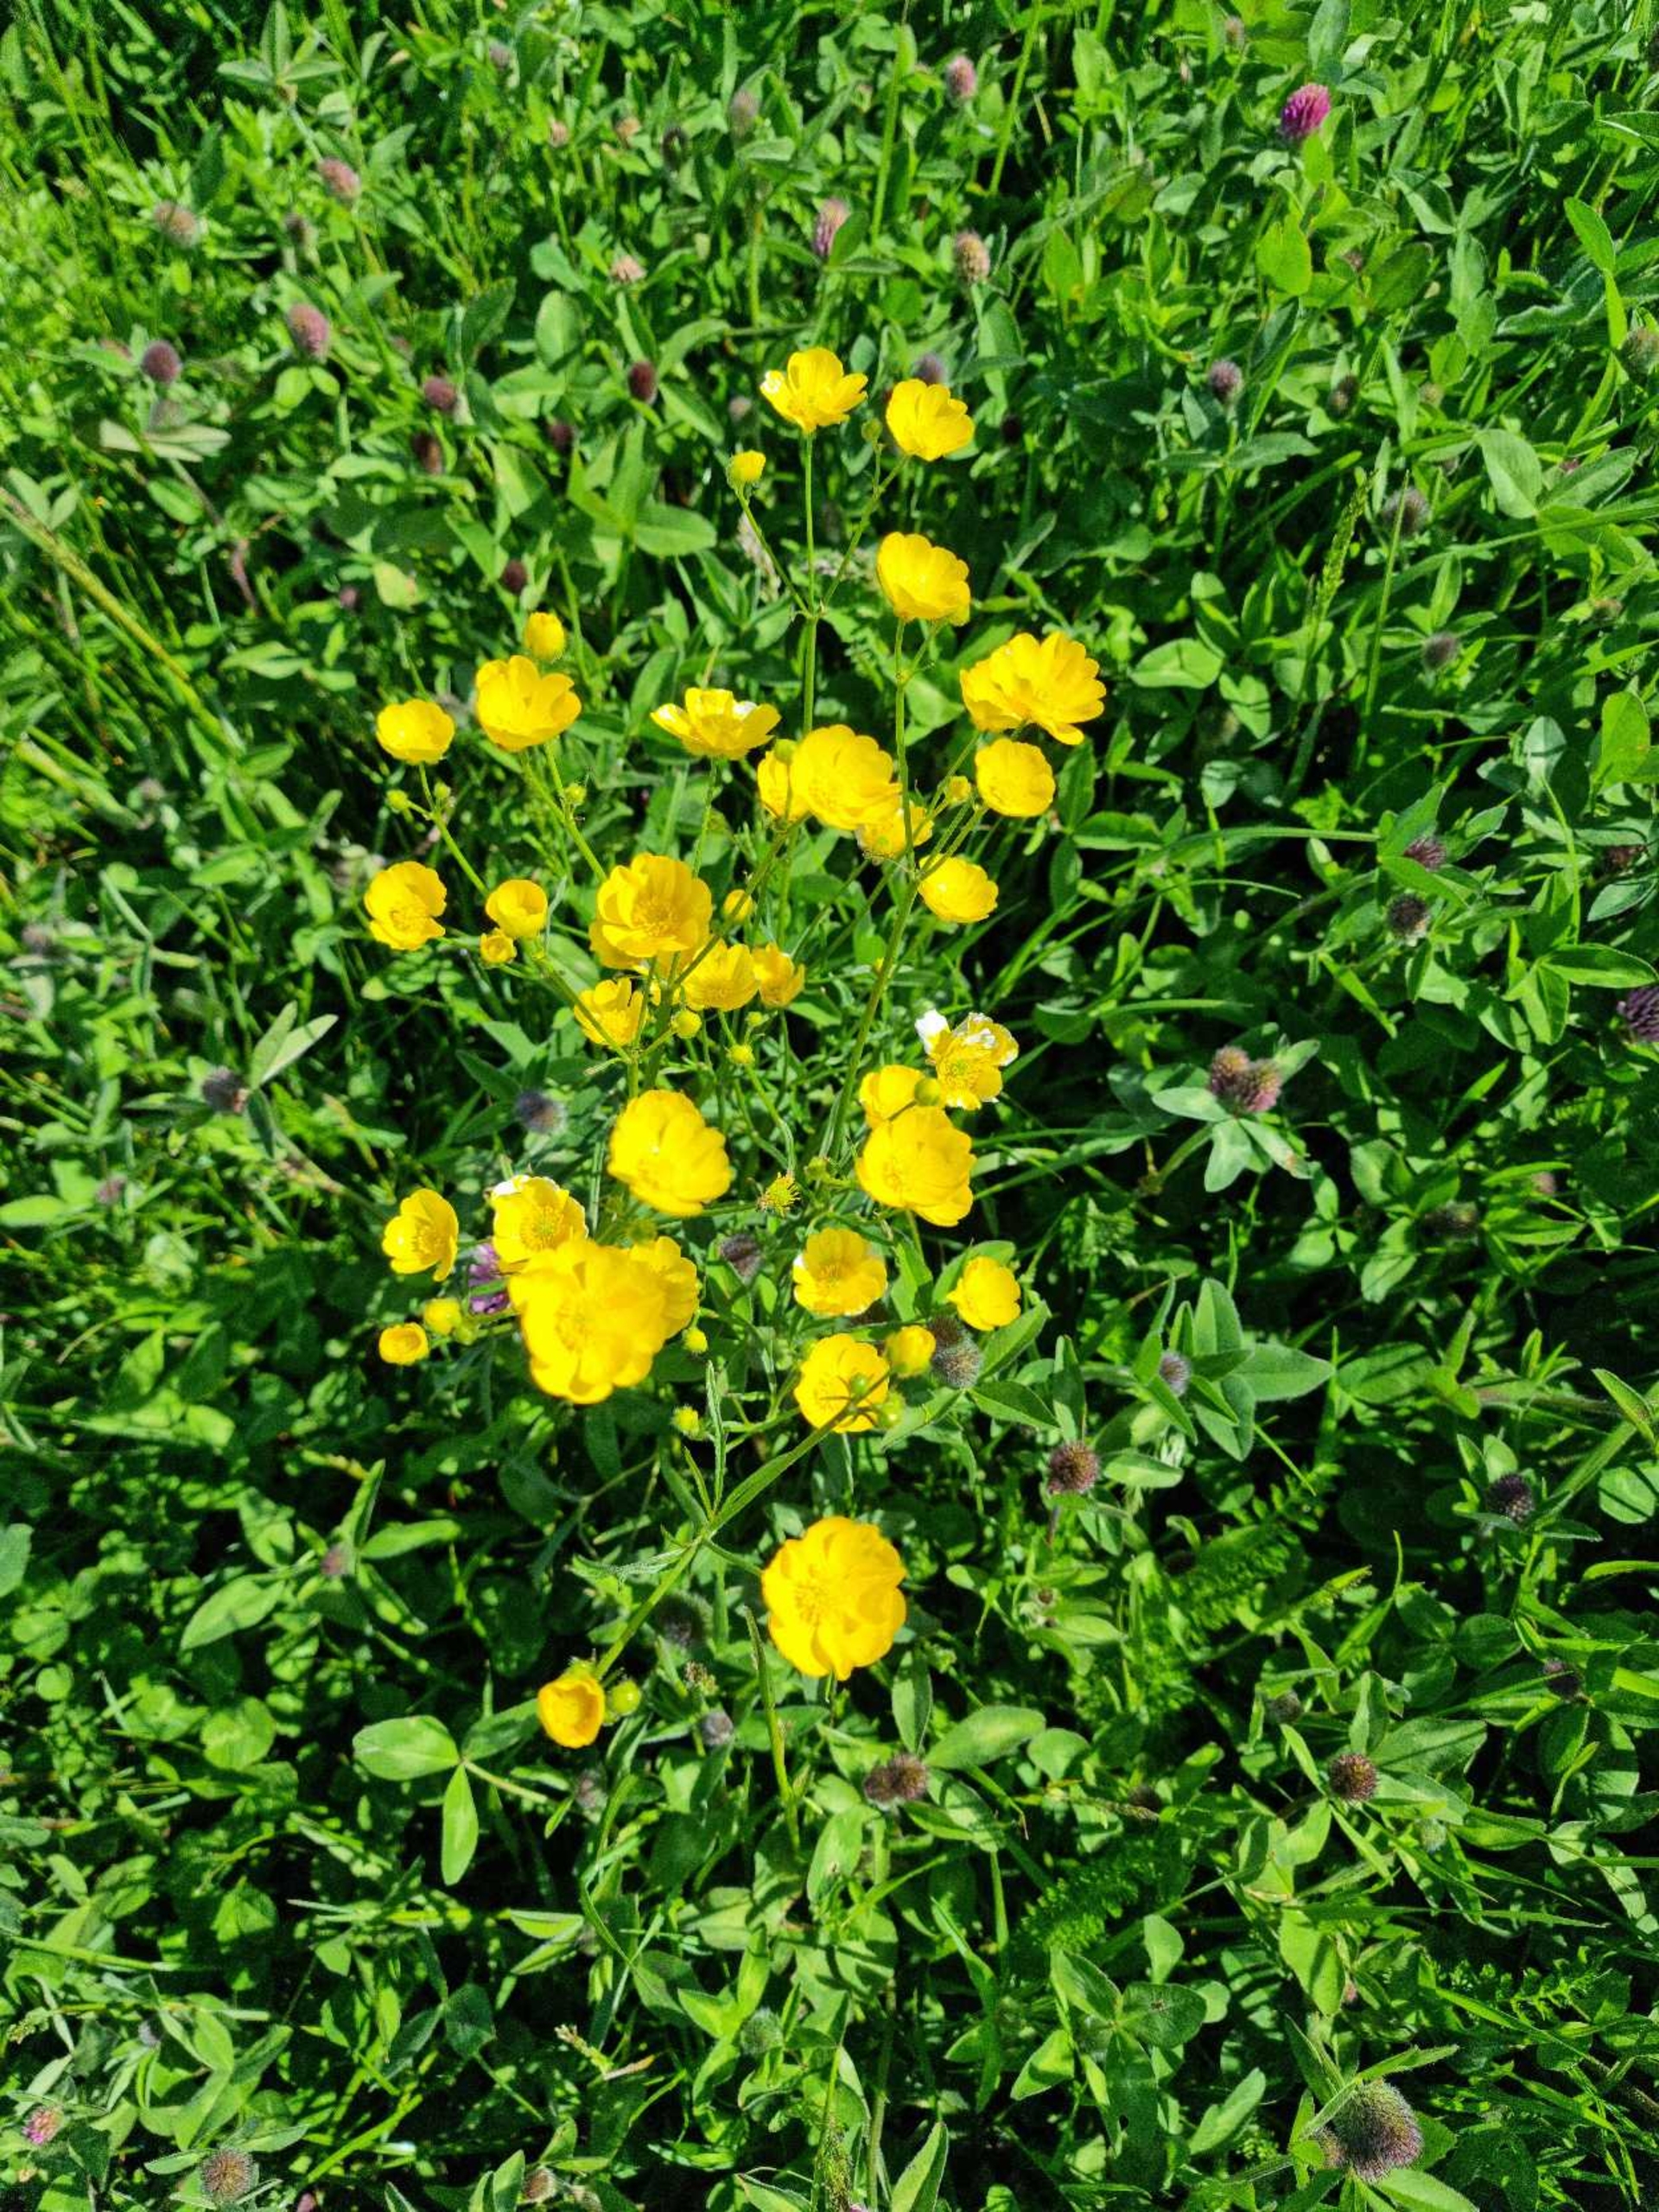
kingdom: Plantae
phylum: Tracheophyta
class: Magnoliopsida
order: Ranunculales
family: Ranunculaceae
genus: Ranunculus
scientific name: Ranunculus acris
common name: Bidende ranunkel
